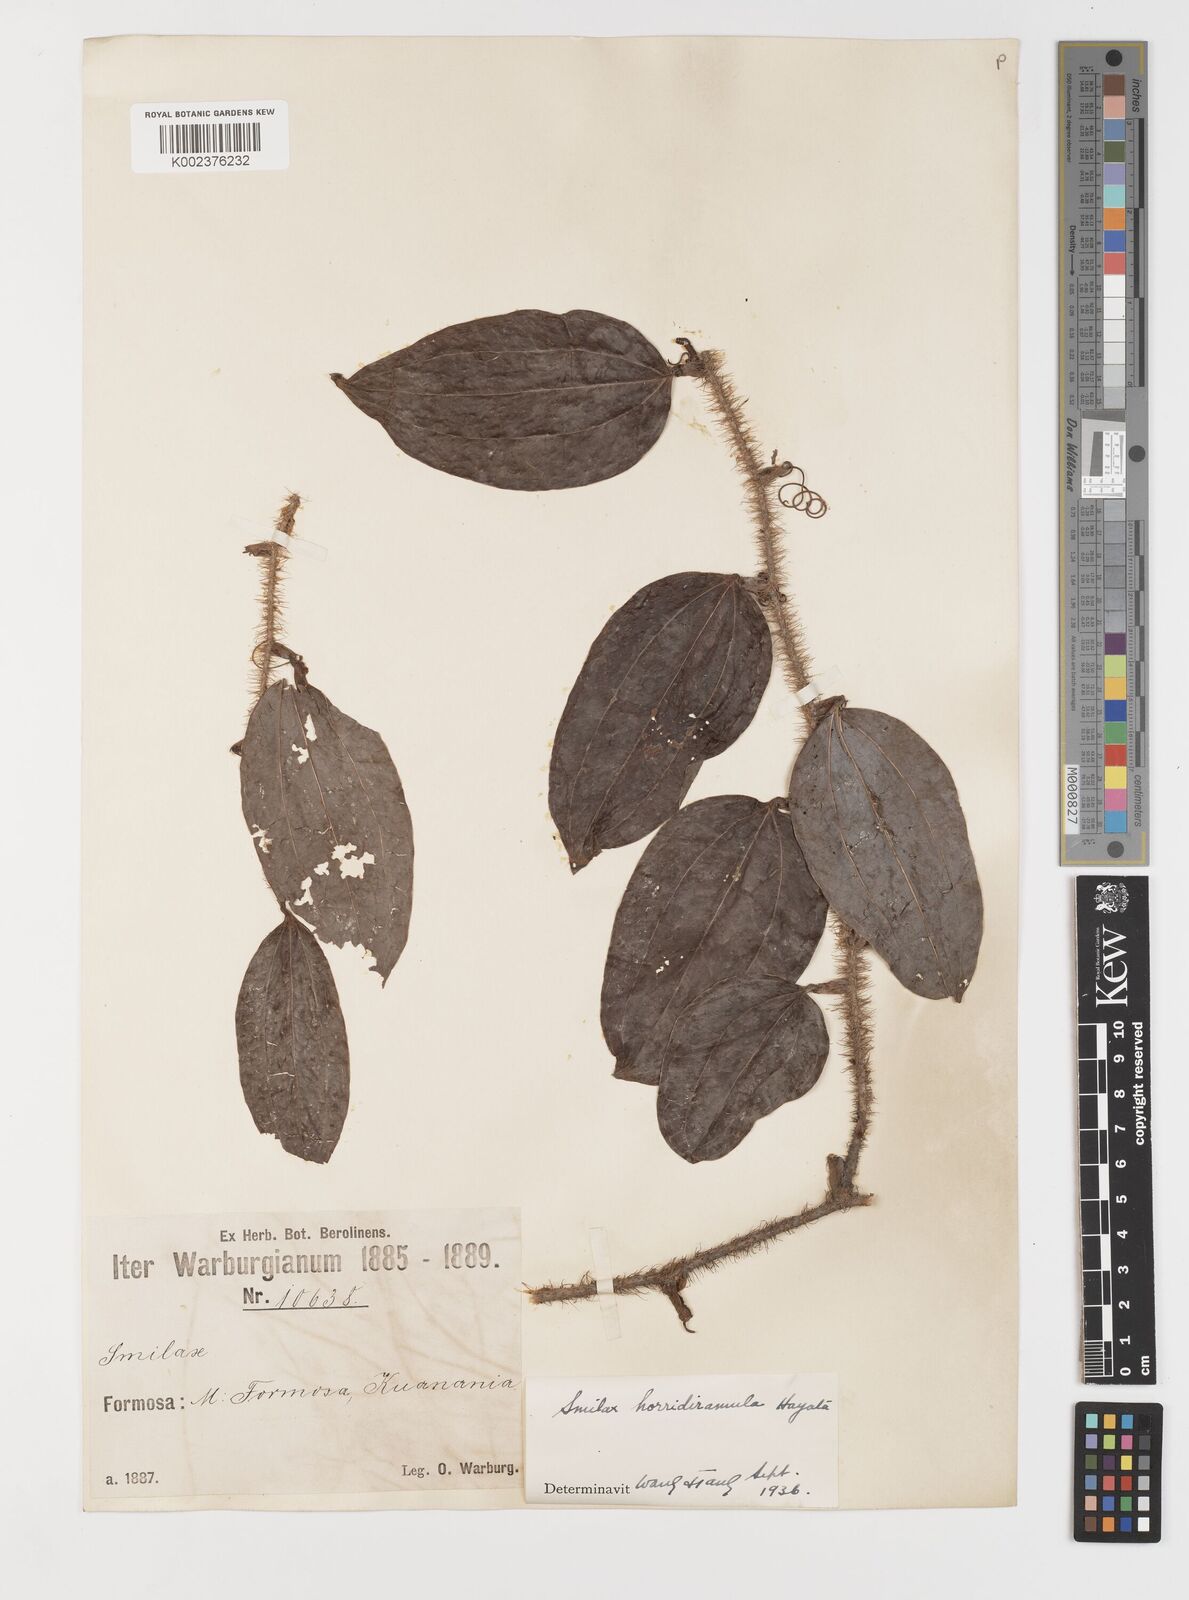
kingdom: Plantae
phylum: Tracheophyta
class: Liliopsida
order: Liliales
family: Smilacaceae
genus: Smilax
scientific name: Smilax horridiramula
